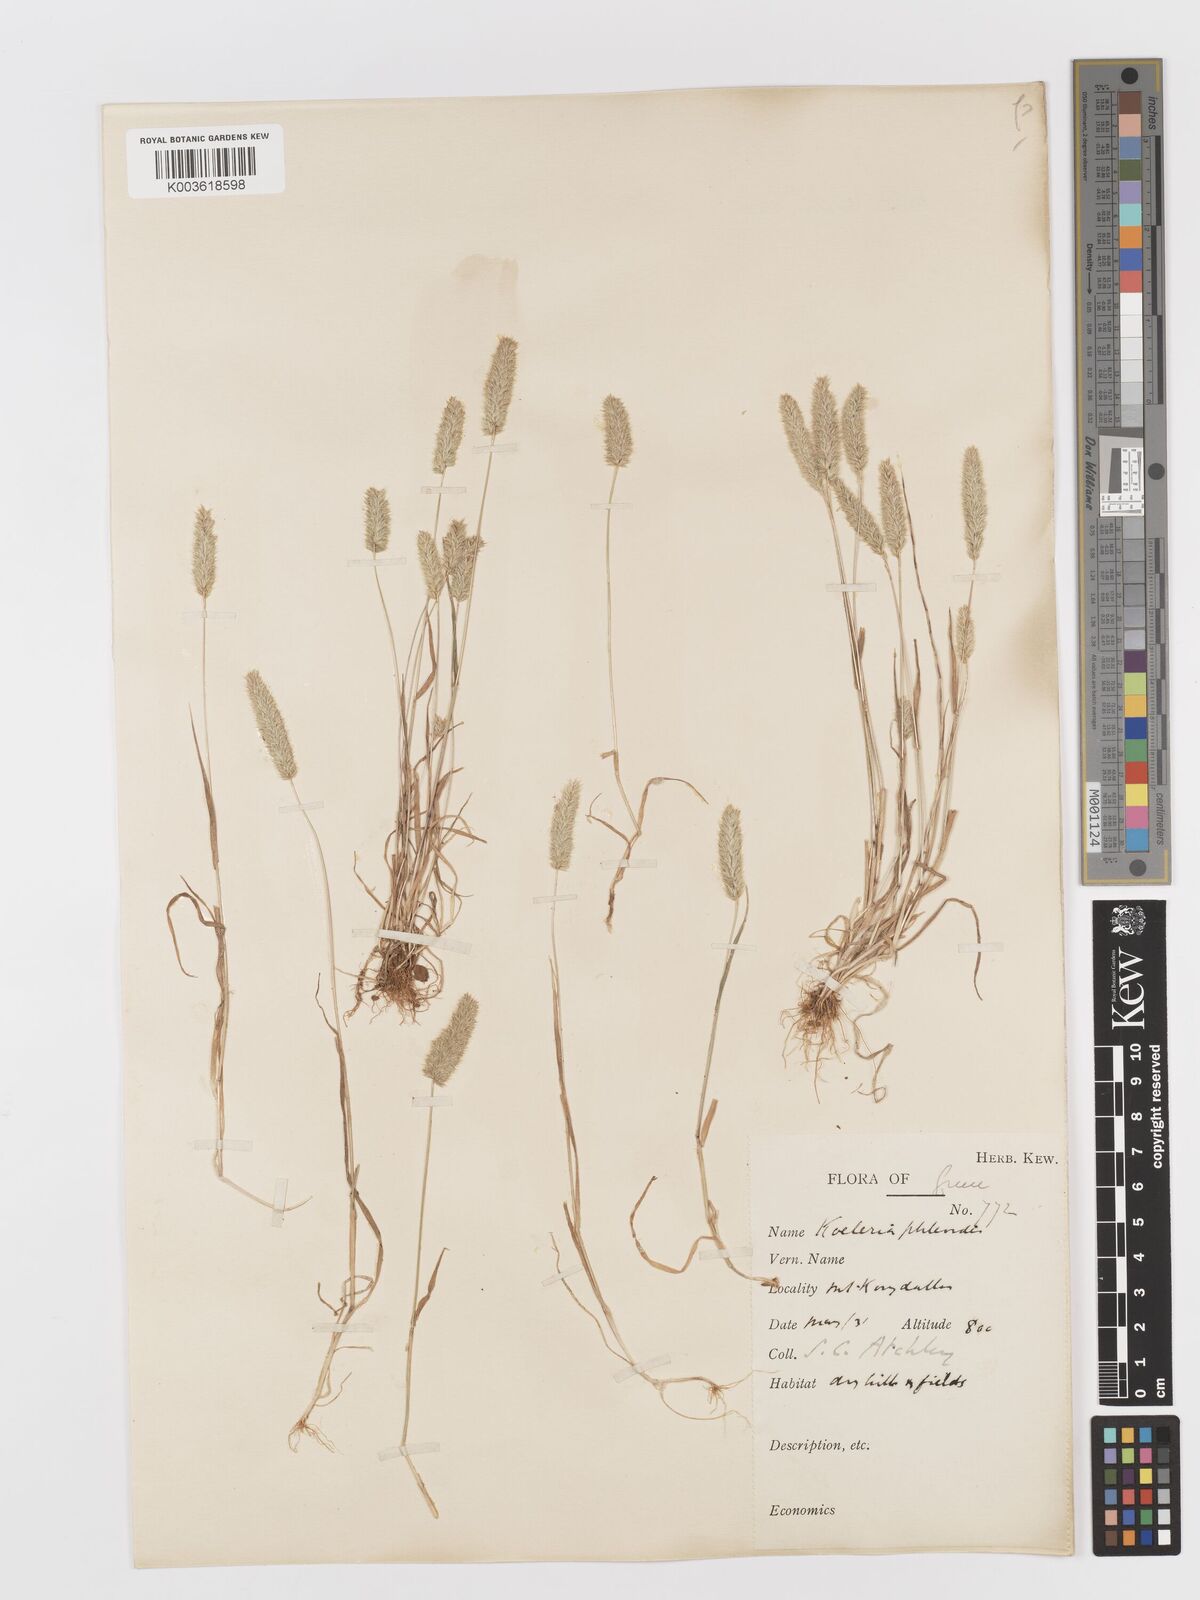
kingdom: Plantae
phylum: Tracheophyta
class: Liliopsida
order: Poales
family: Poaceae
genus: Rostraria
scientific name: Rostraria cristata
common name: Mediterranean hair-grass
